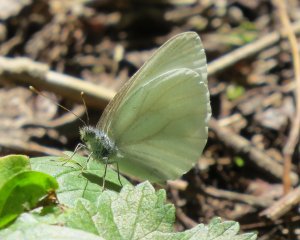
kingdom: Animalia
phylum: Arthropoda
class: Insecta
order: Lepidoptera
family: Pieridae
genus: Pieris
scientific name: Pieris oleracea
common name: Mustard White
